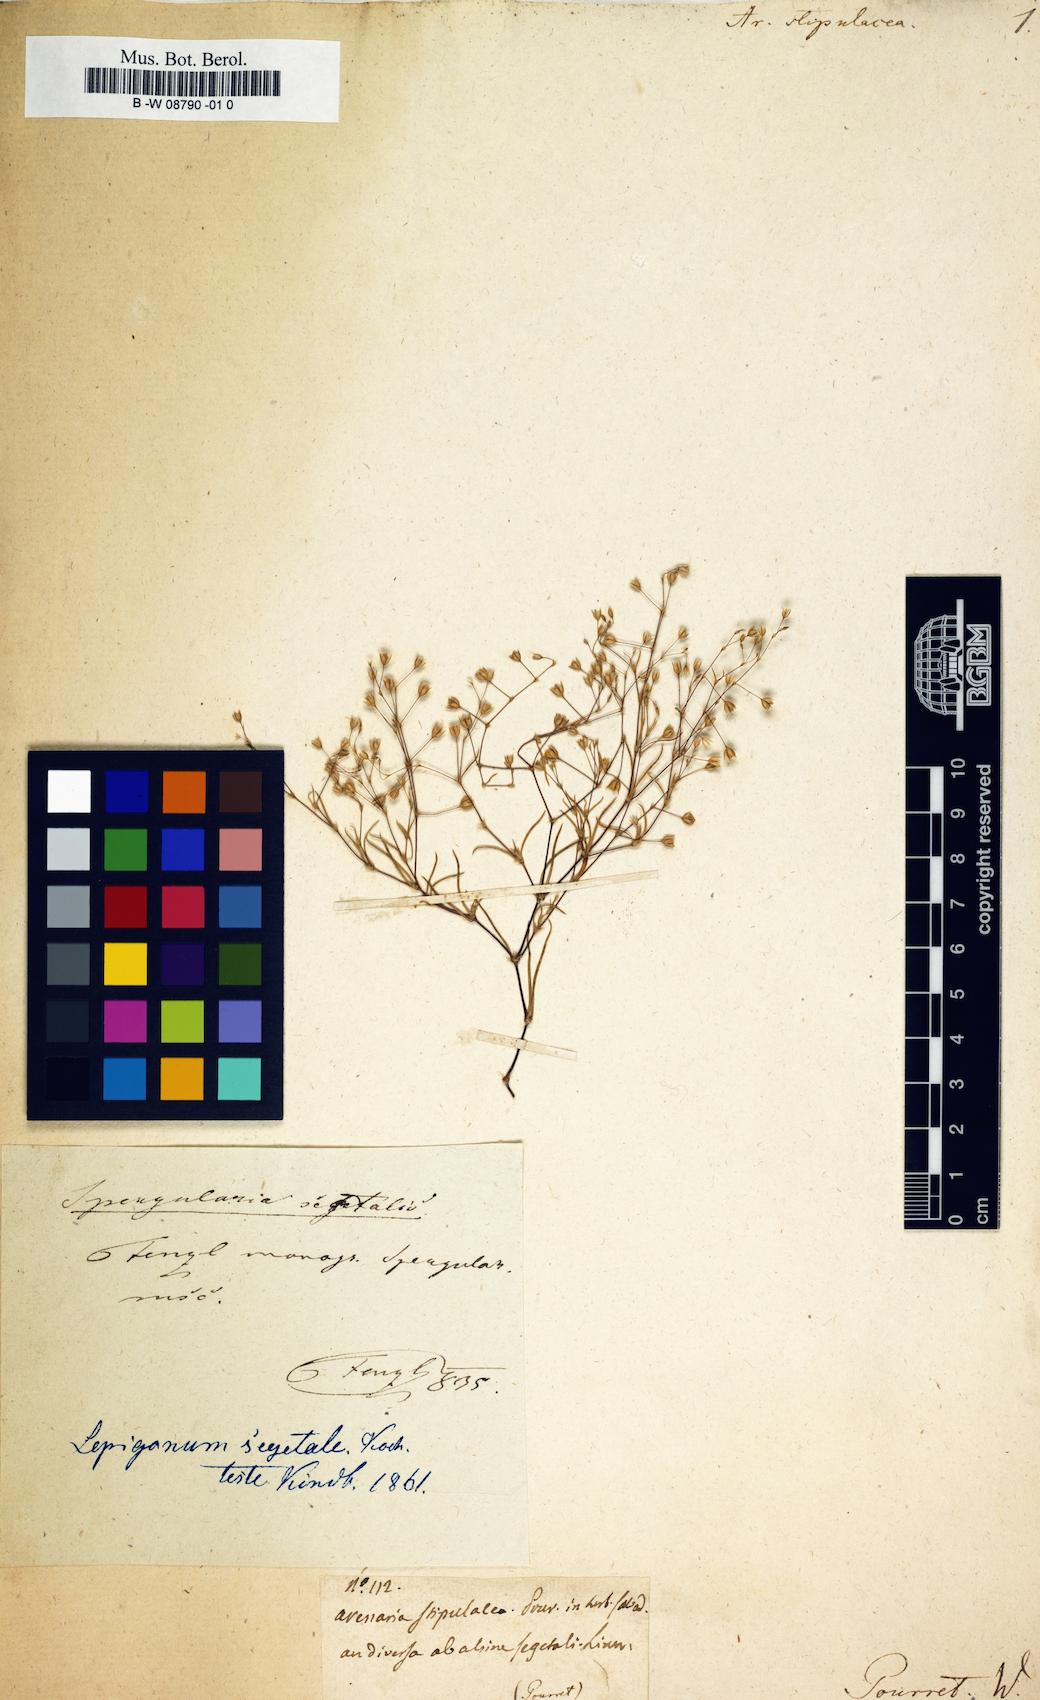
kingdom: Plantae
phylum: Tracheophyta
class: Magnoliopsida
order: Caryophyllales
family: Caryophyllaceae
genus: Arenaria
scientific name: Arenaria
